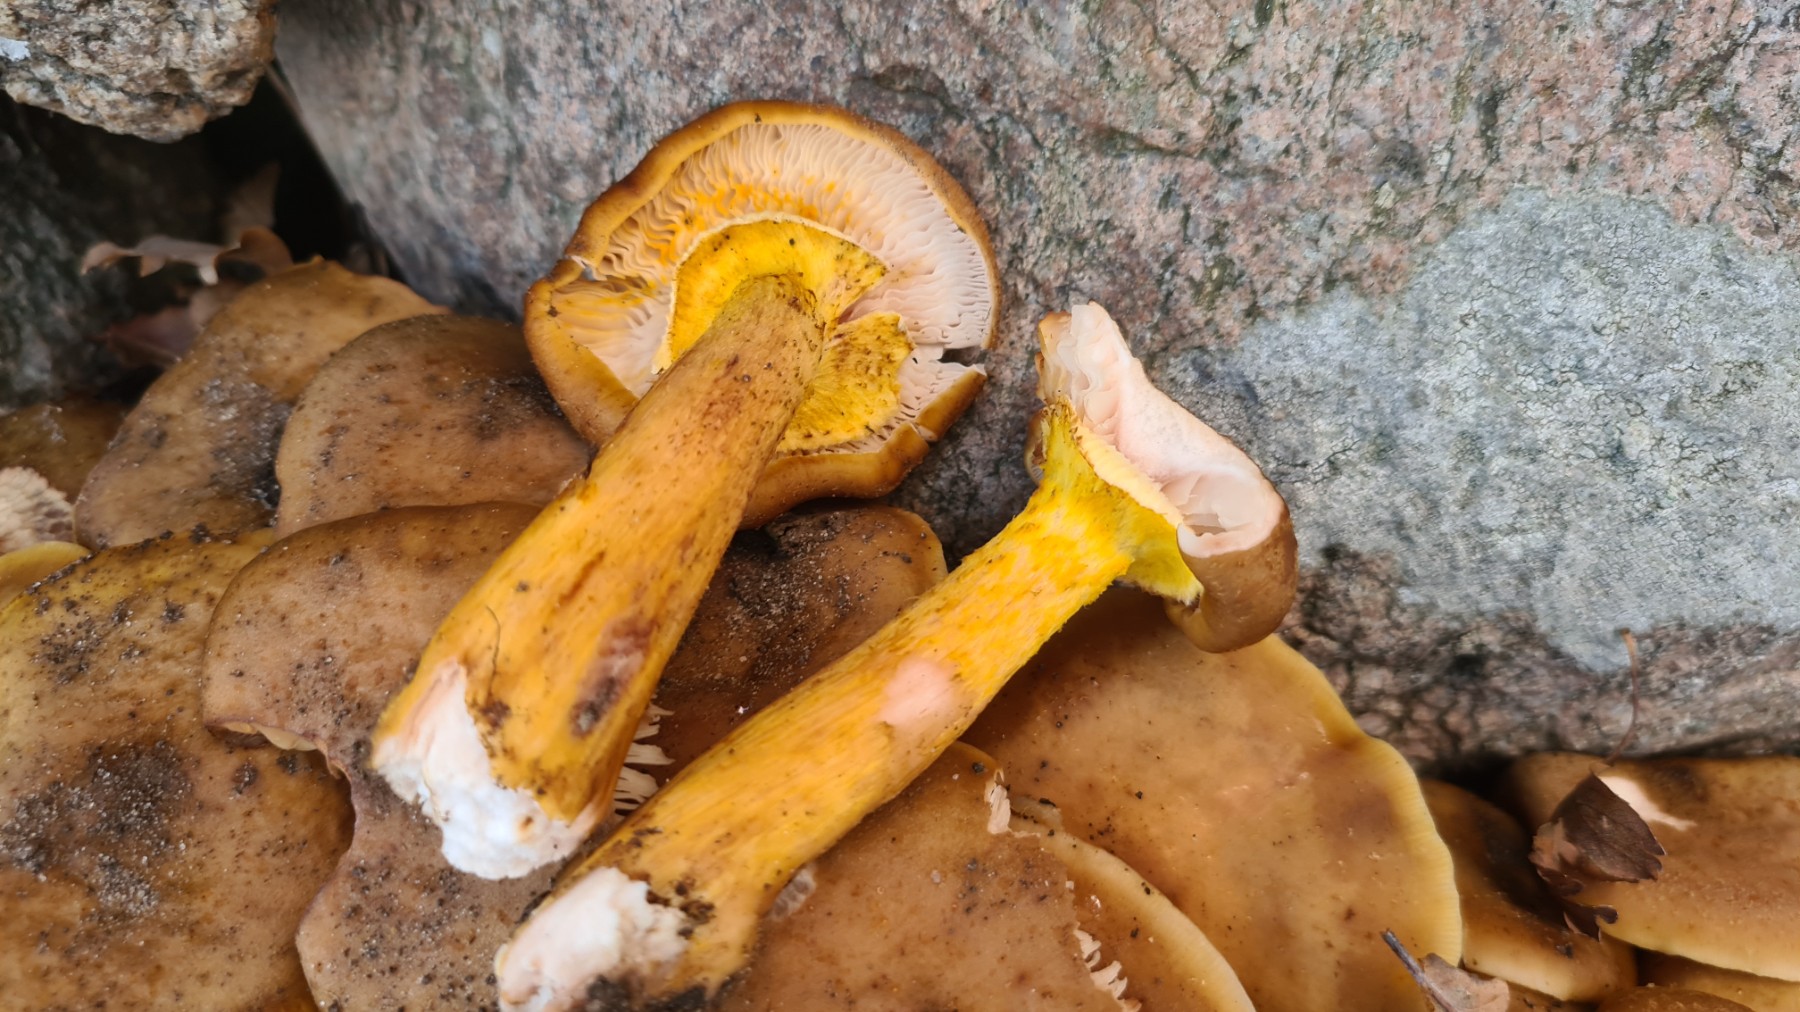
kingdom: Fungi
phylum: Basidiomycota
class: Agaricomycetes
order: Agaricales
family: Physalacriaceae
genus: Armillaria
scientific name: Armillaria lutea
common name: køllestokket honningsvamp
